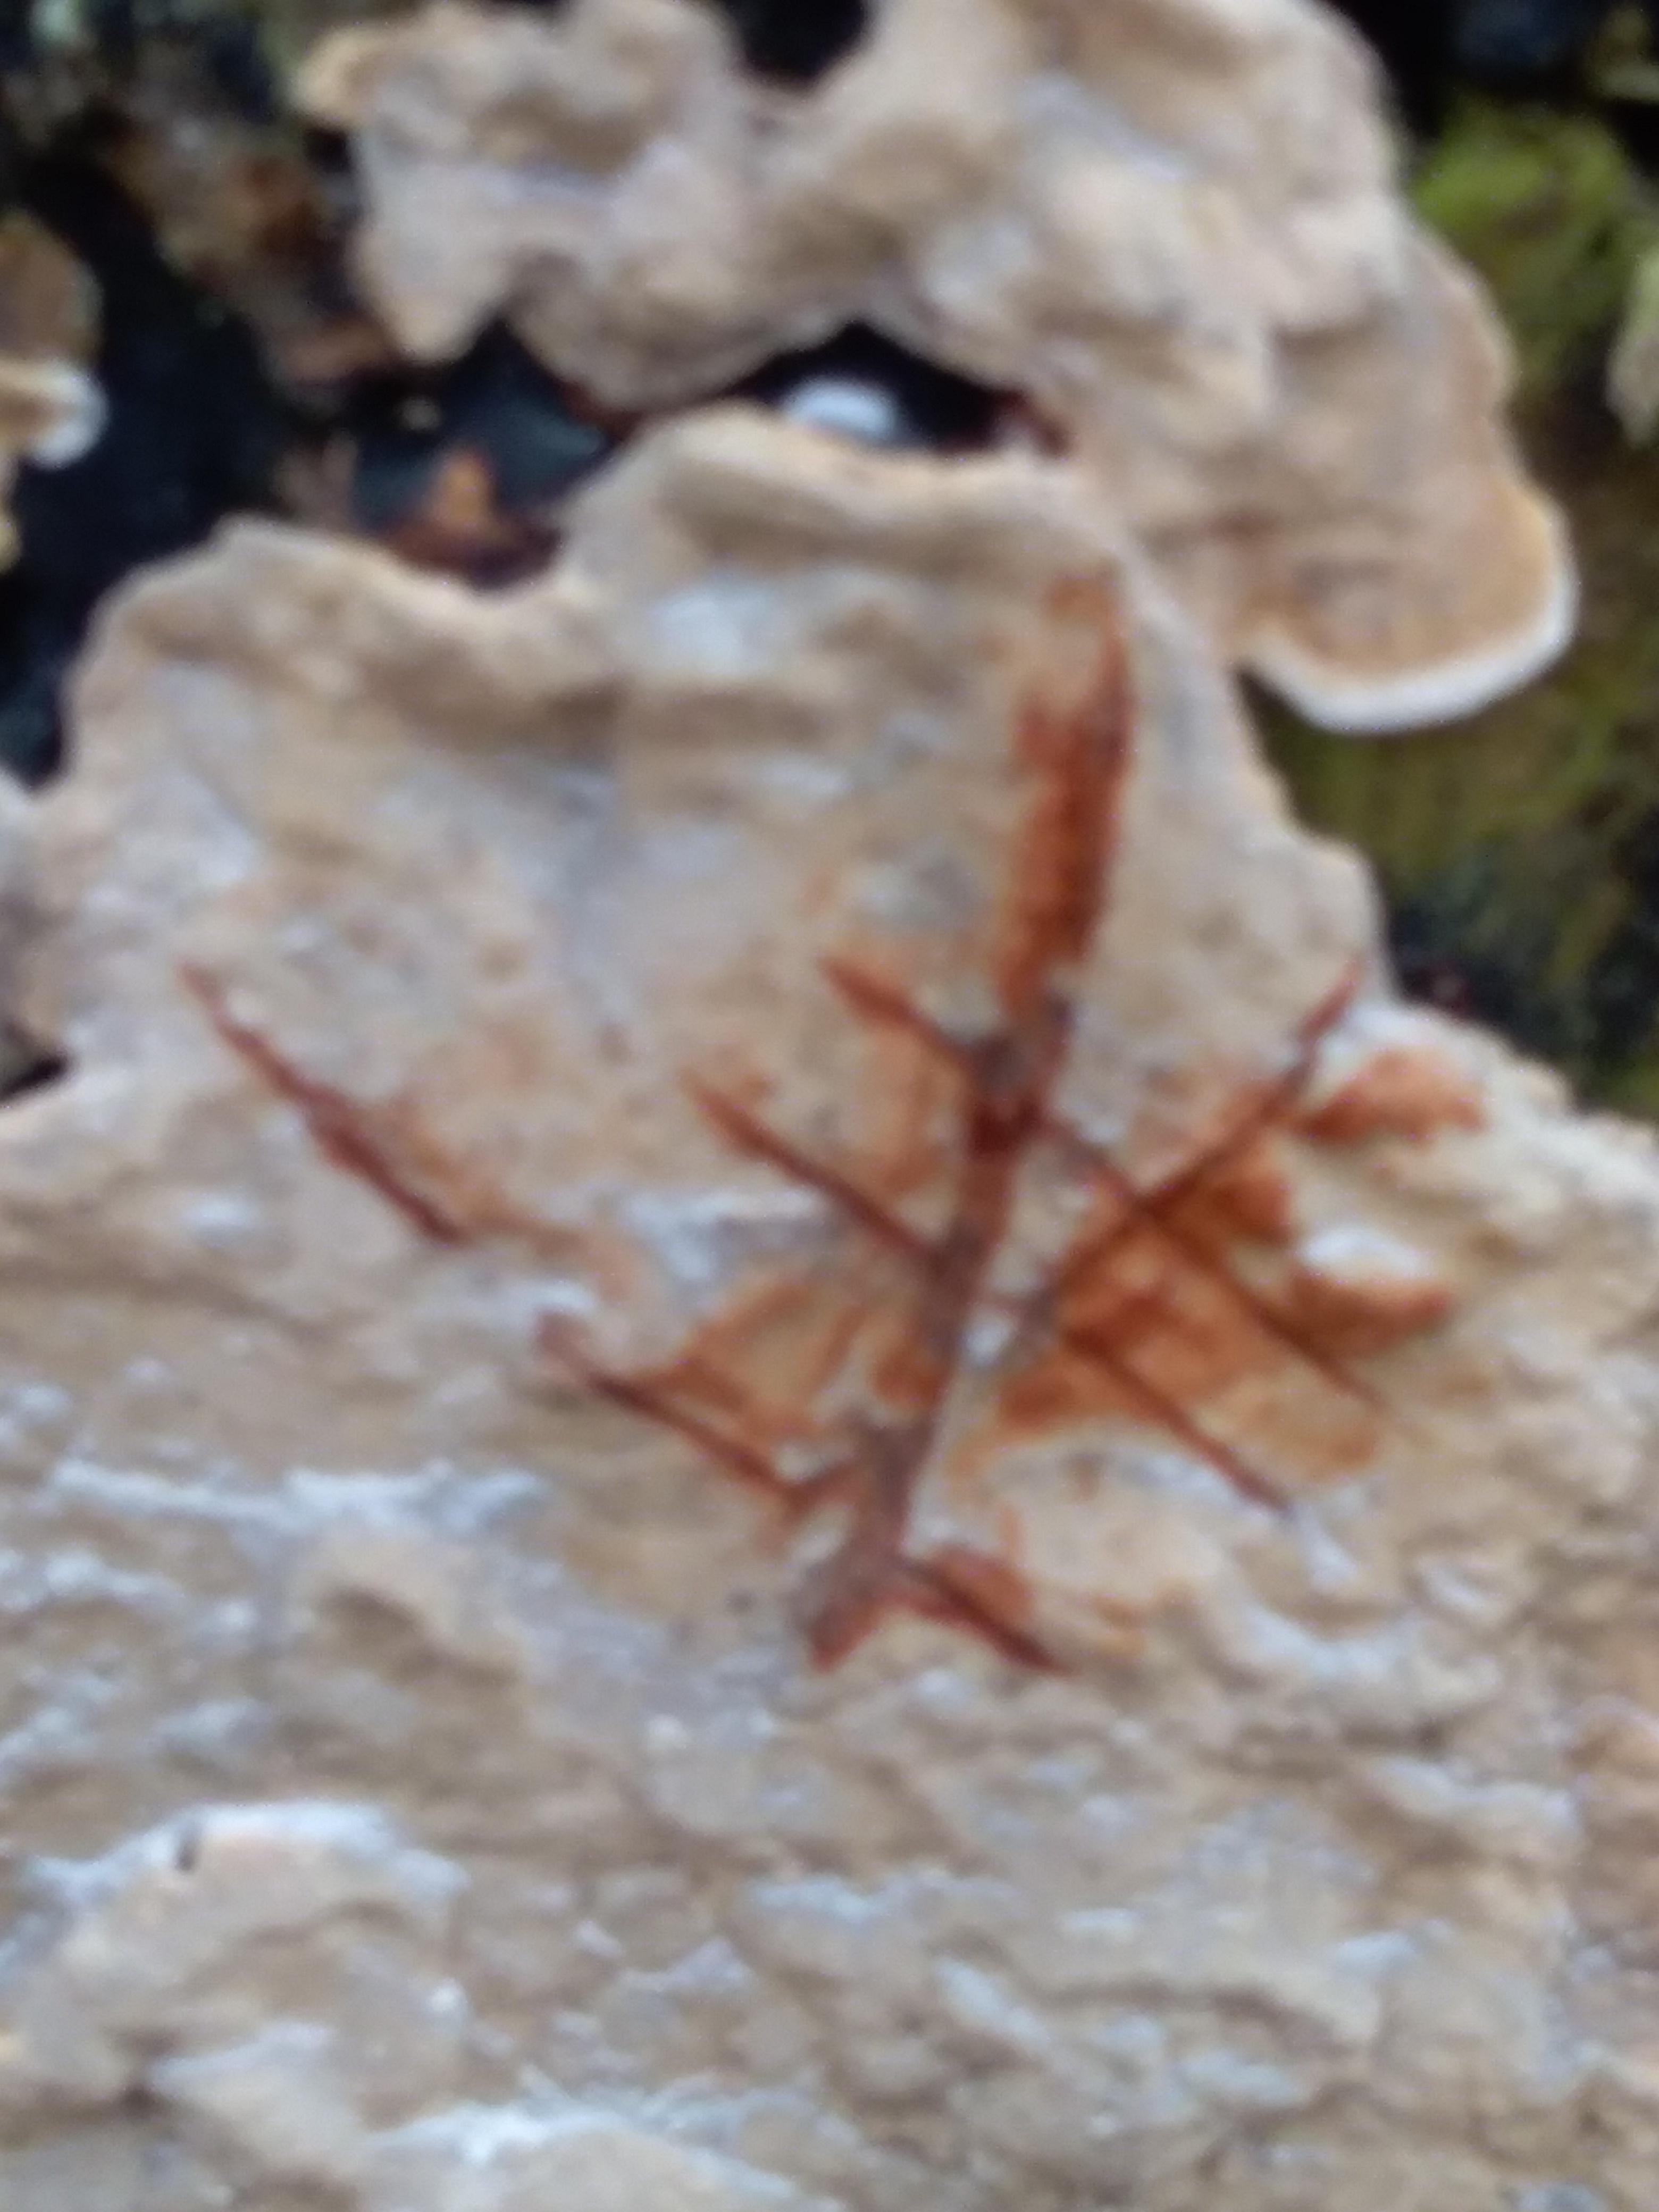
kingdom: Fungi
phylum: Basidiomycota
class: Agaricomycetes
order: Russulales
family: Stereaceae
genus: Stereum
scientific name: Stereum rugosum
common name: rynket lædersvamp
